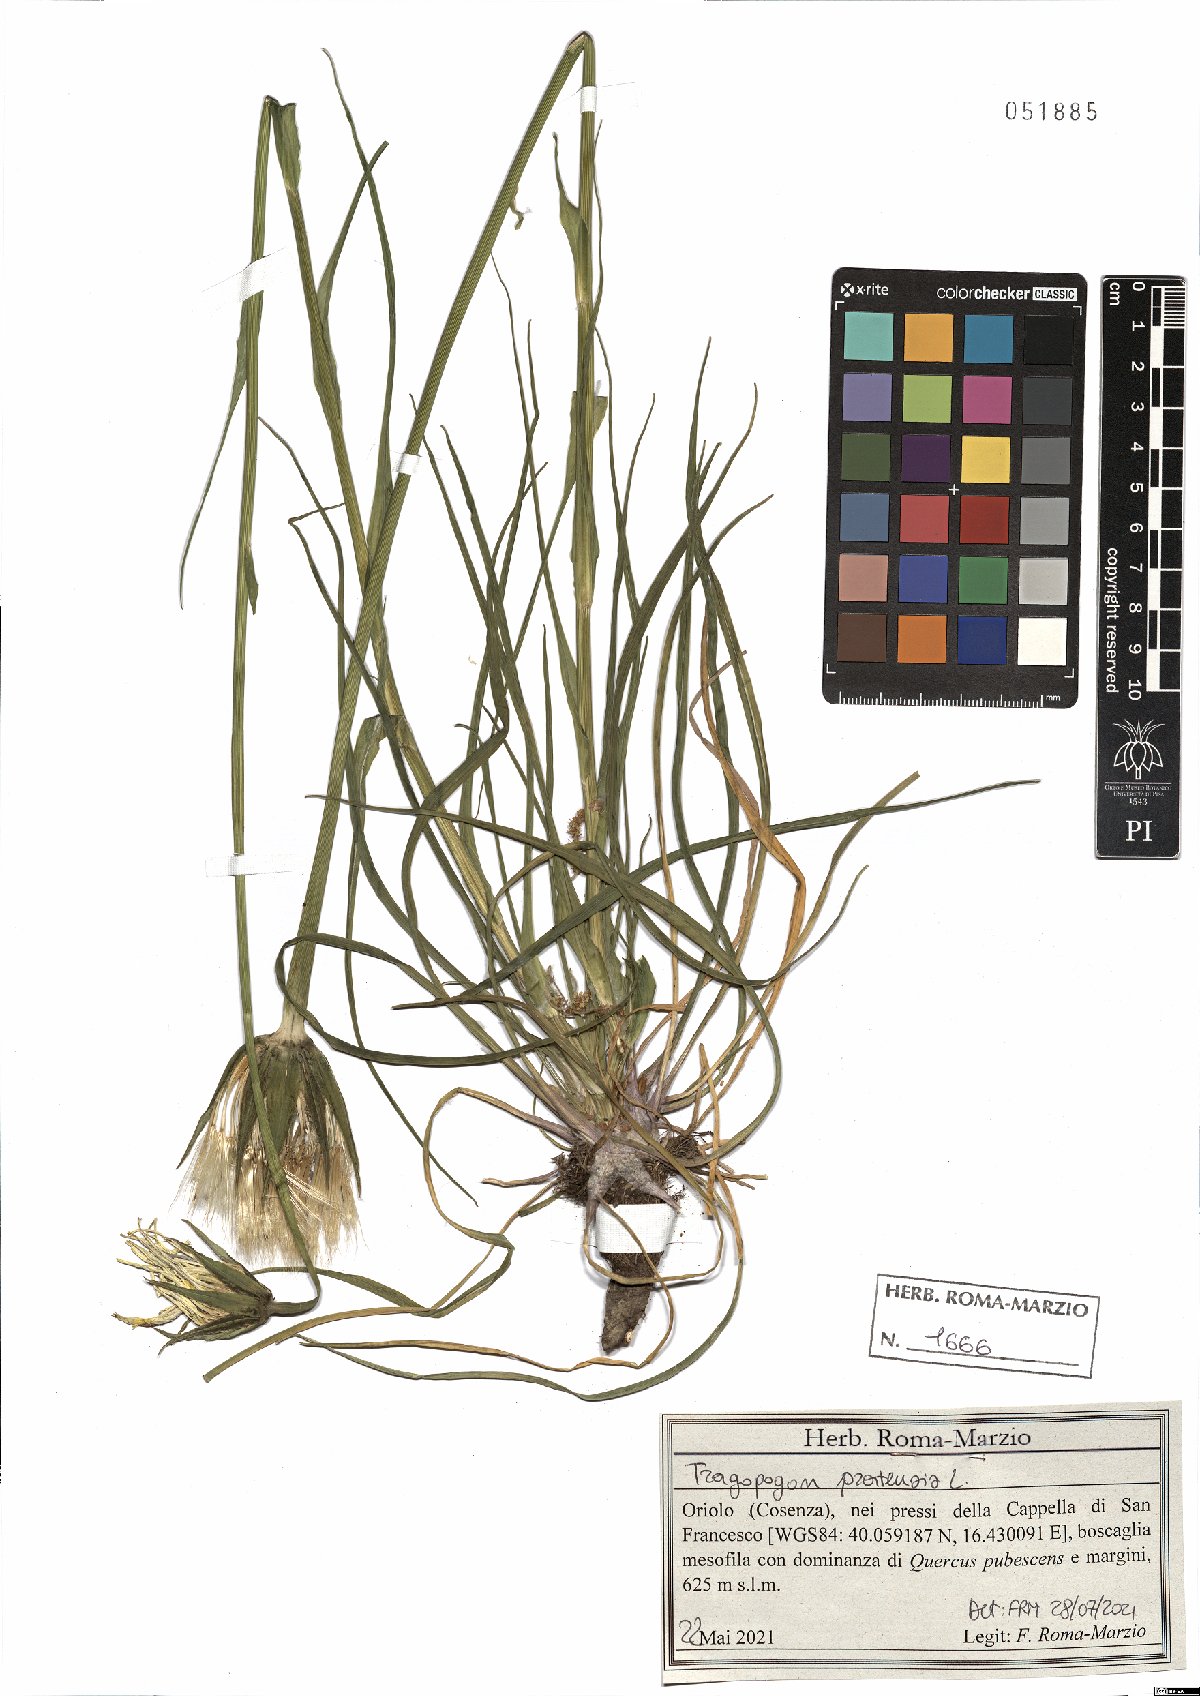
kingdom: Plantae
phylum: Tracheophyta
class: Magnoliopsida
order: Asterales
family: Asteraceae
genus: Tragopogon
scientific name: Tragopogon pratensis
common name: Goat's-beard
